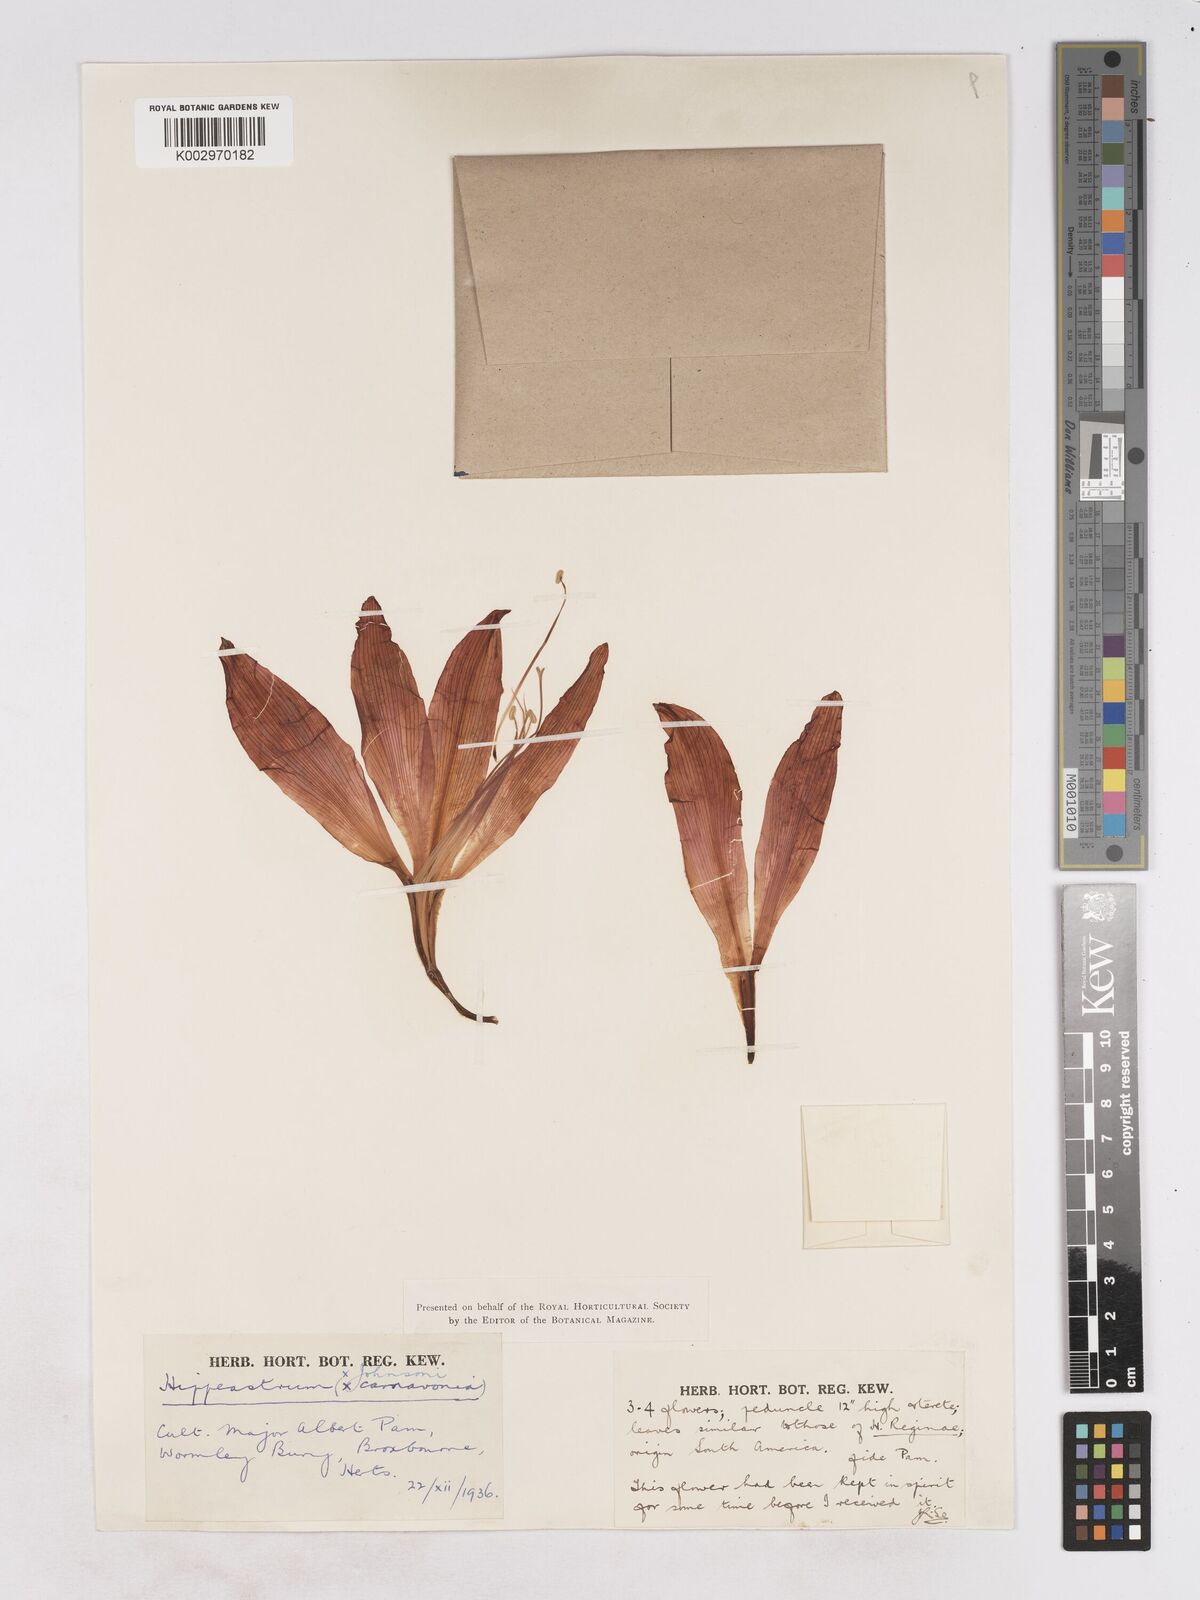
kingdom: Plantae
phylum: Tracheophyta
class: Liliopsida
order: Asparagales
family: Amaryllidaceae
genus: Hippeastrum
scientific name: Hippeastrum johnsonii
